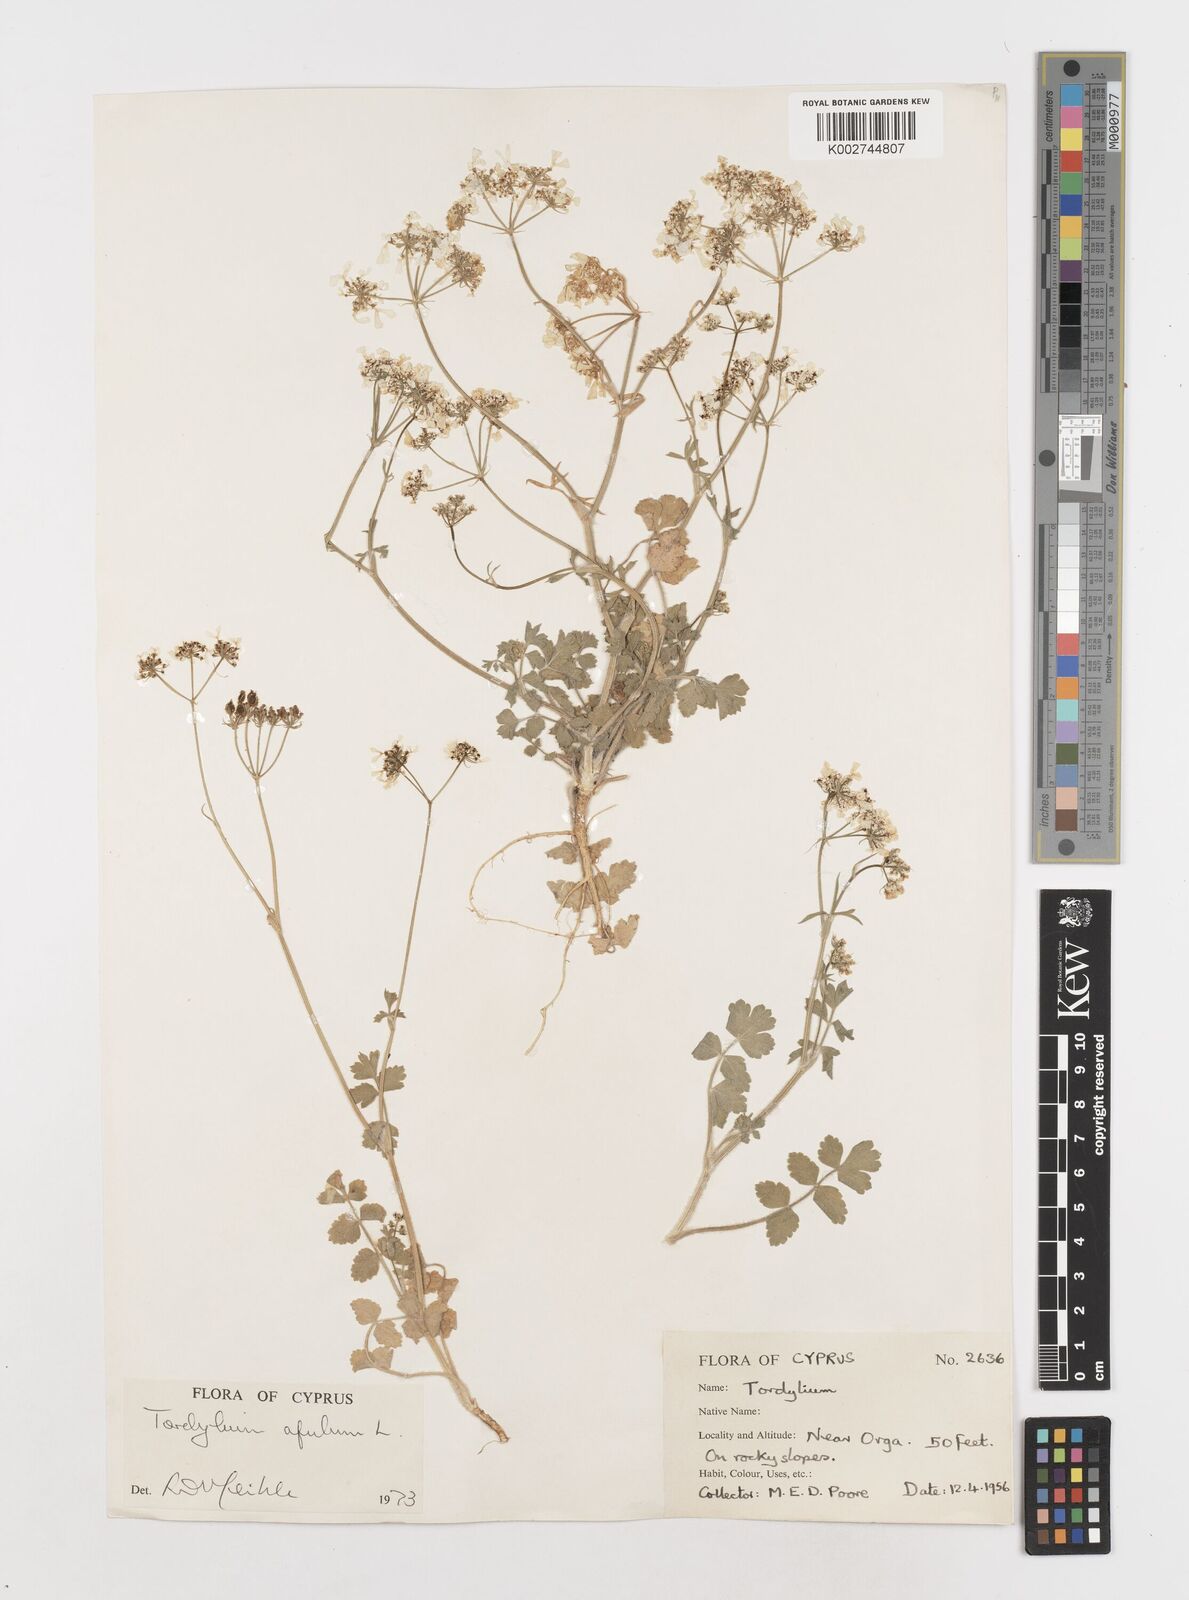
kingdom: Plantae
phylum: Tracheophyta
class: Magnoliopsida
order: Apiales
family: Apiaceae
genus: Tordylium
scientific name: Tordylium apulum
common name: Mediterranean hartwort
